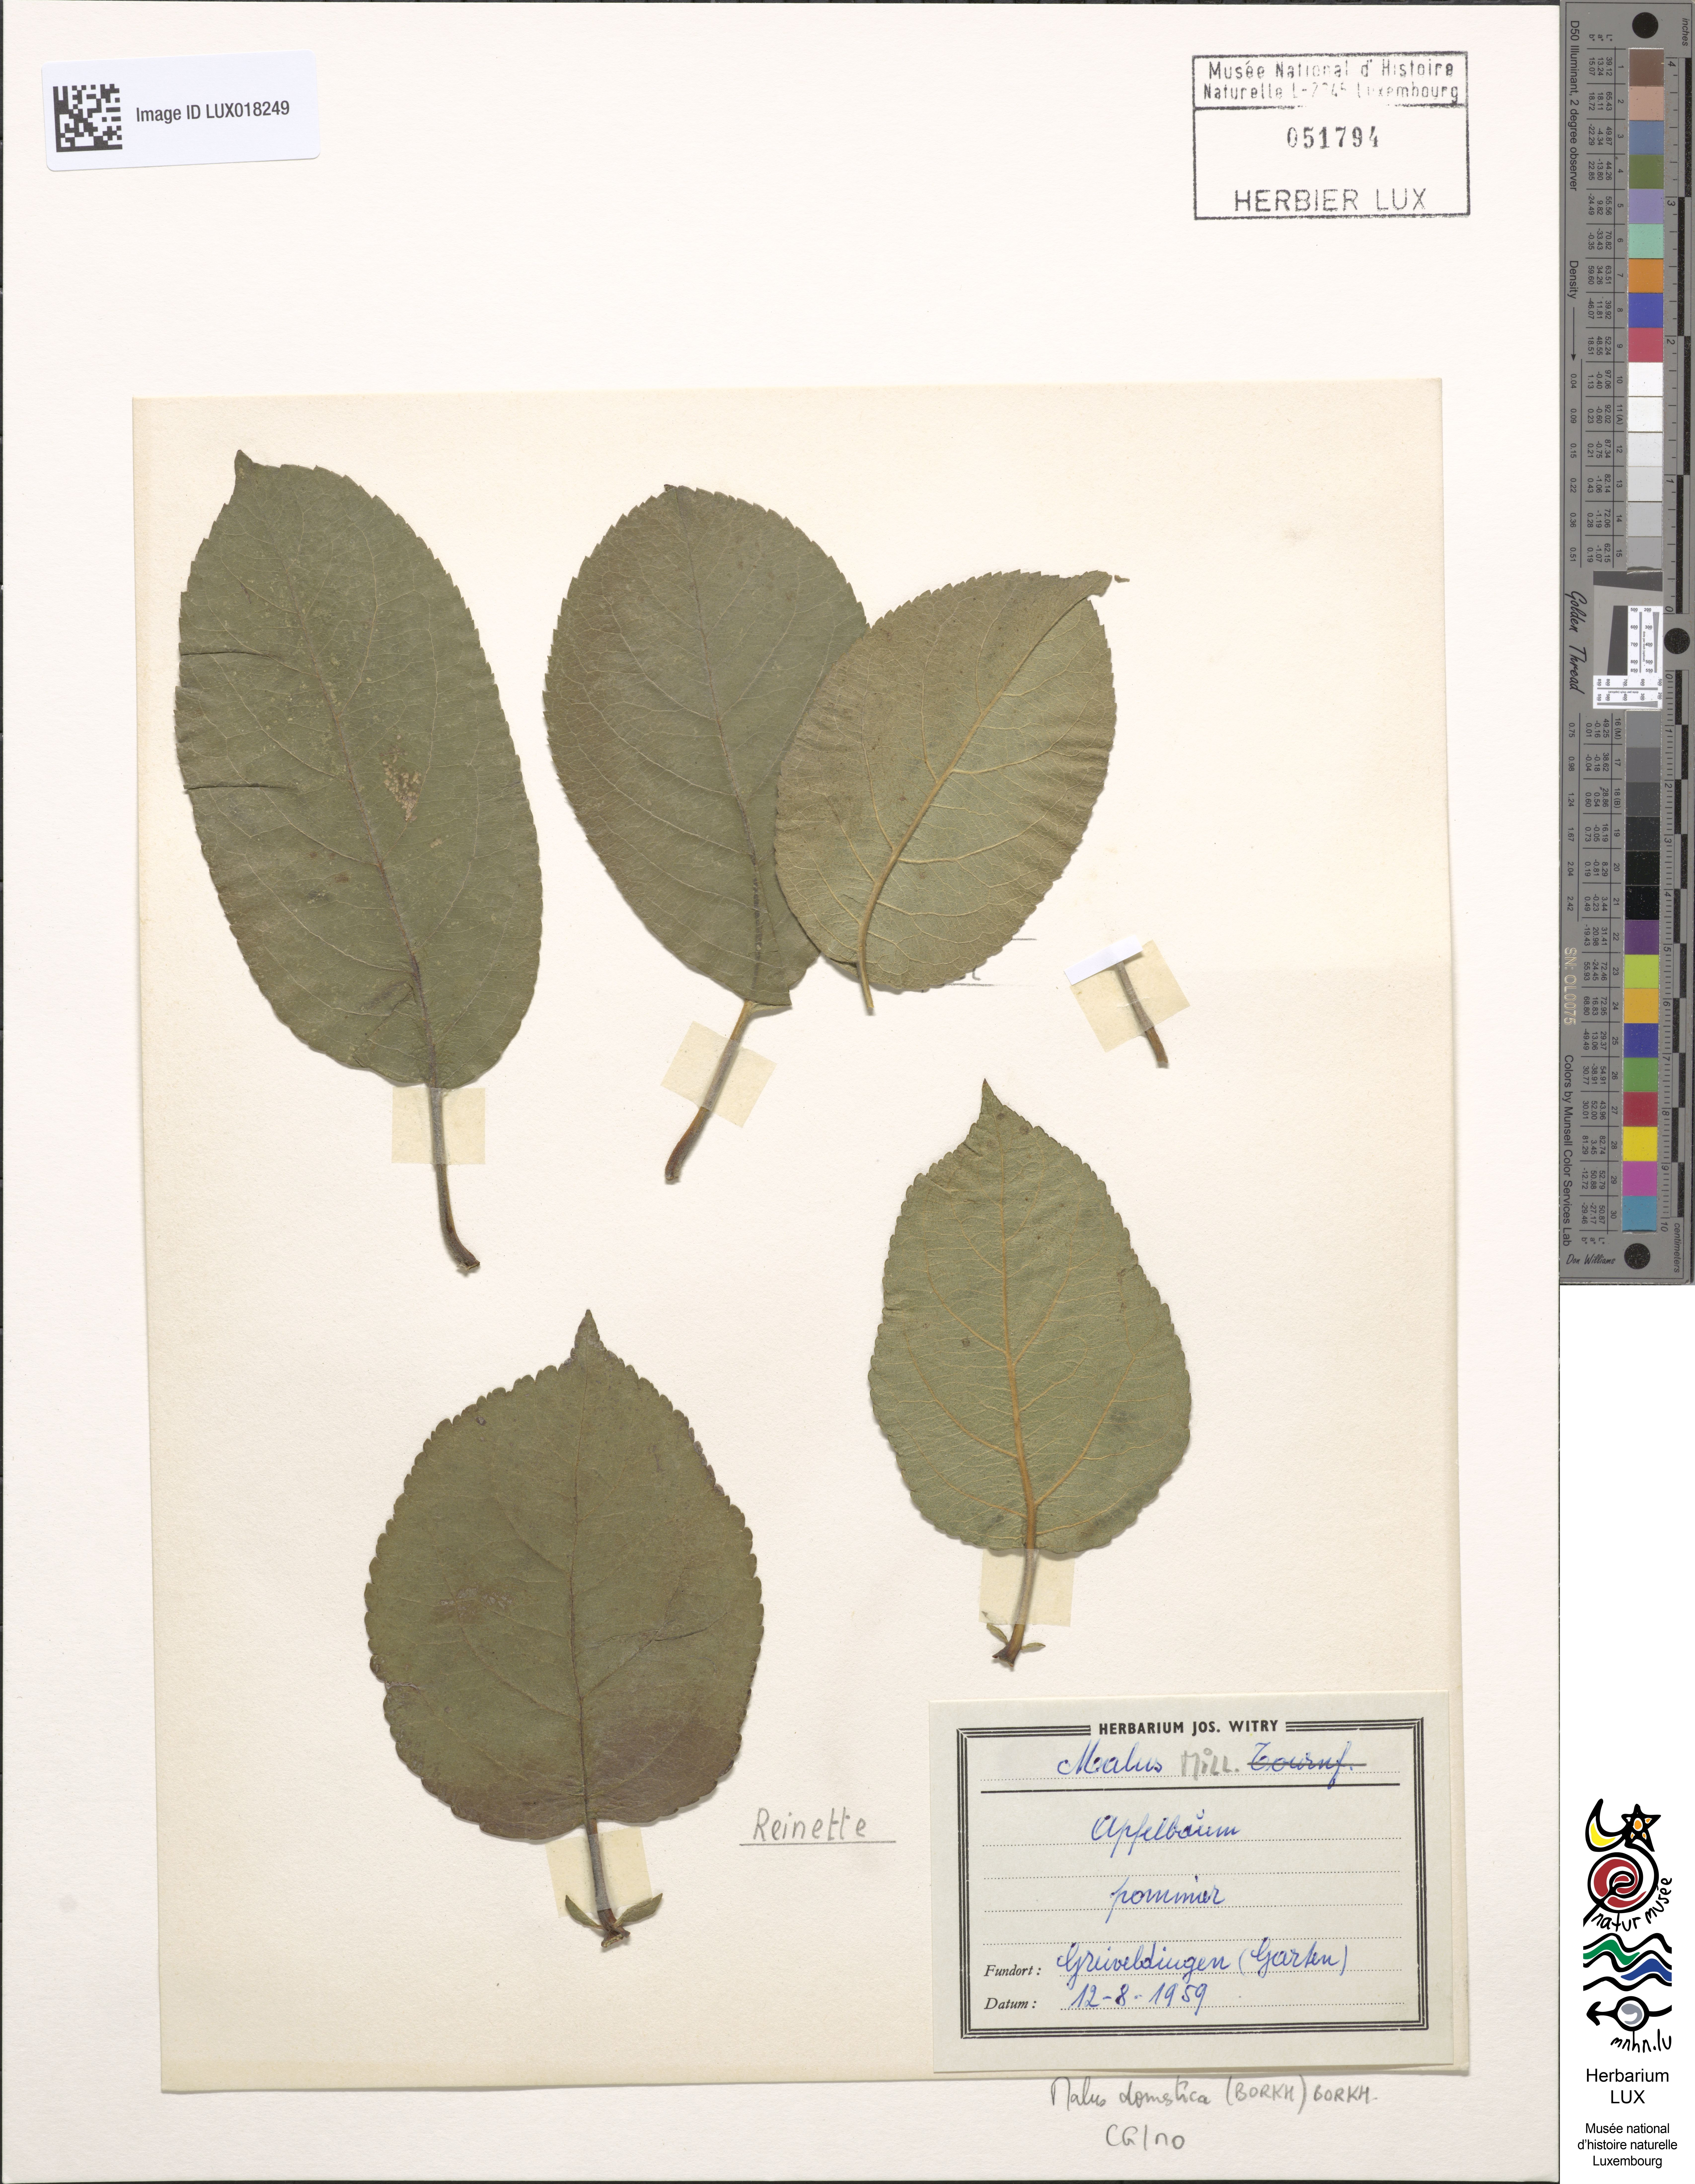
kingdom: Plantae
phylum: Tracheophyta
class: Magnoliopsida
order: Rosales
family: Rosaceae
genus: Malus
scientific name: Malus domestica
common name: Apple
